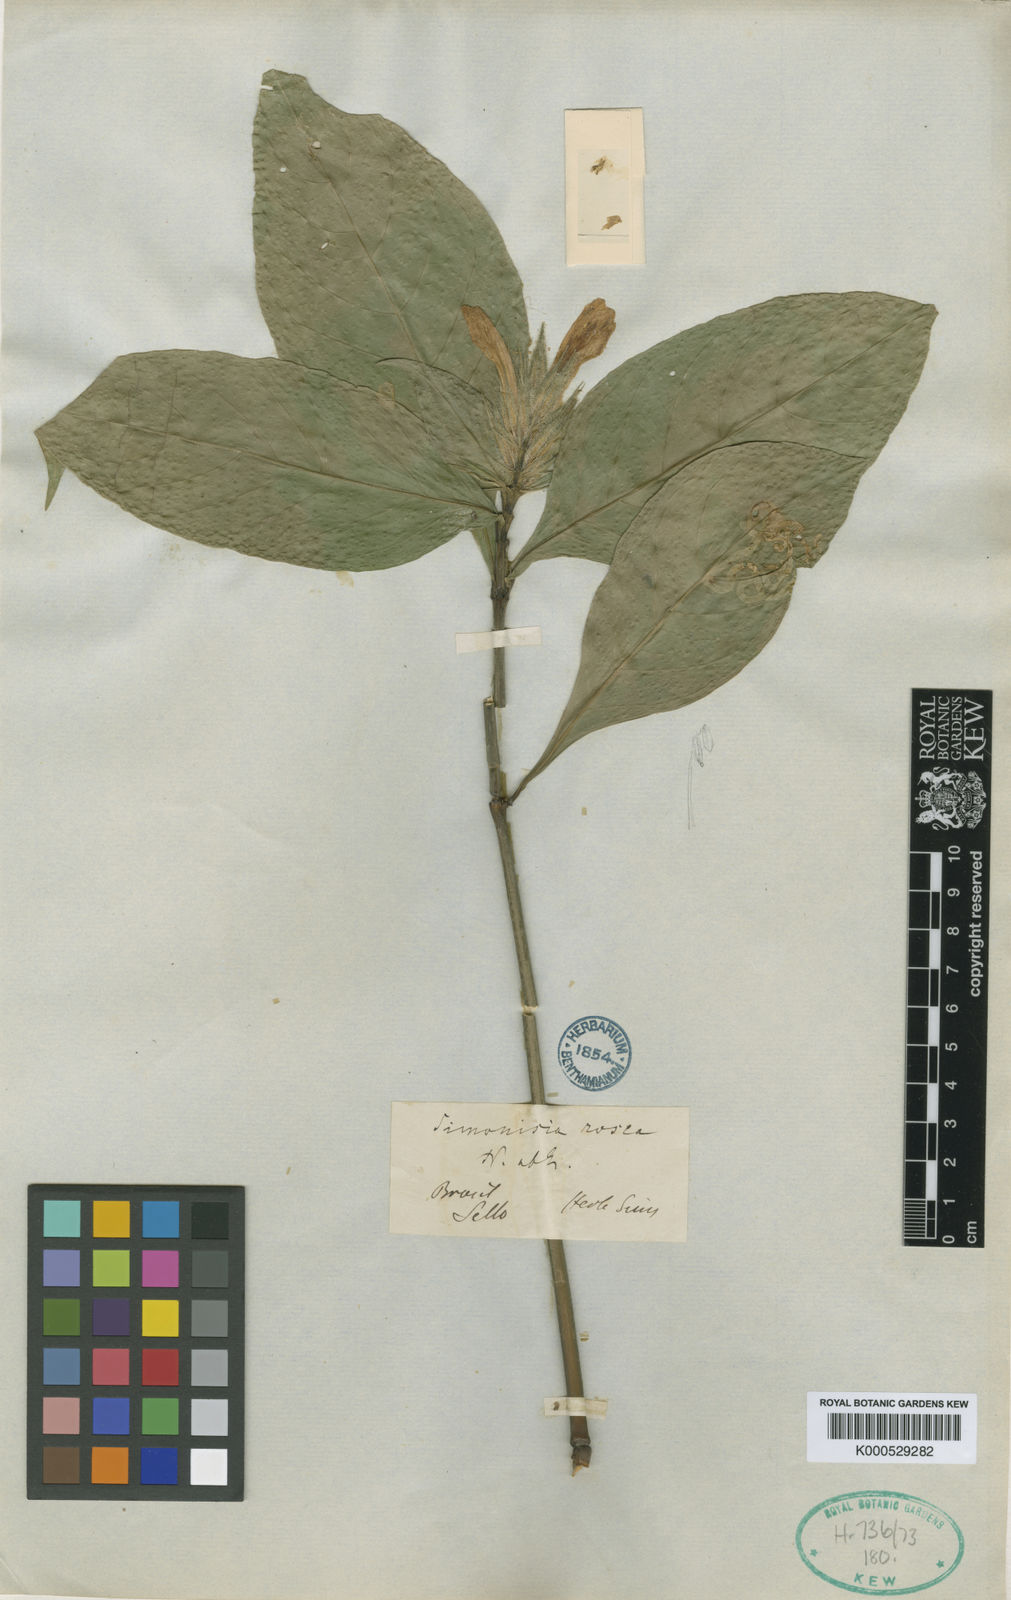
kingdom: Plantae
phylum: Tracheophyta
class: Magnoliopsida
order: Lamiales
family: Acanthaceae
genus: Justicia
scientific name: Justicia simonisia
